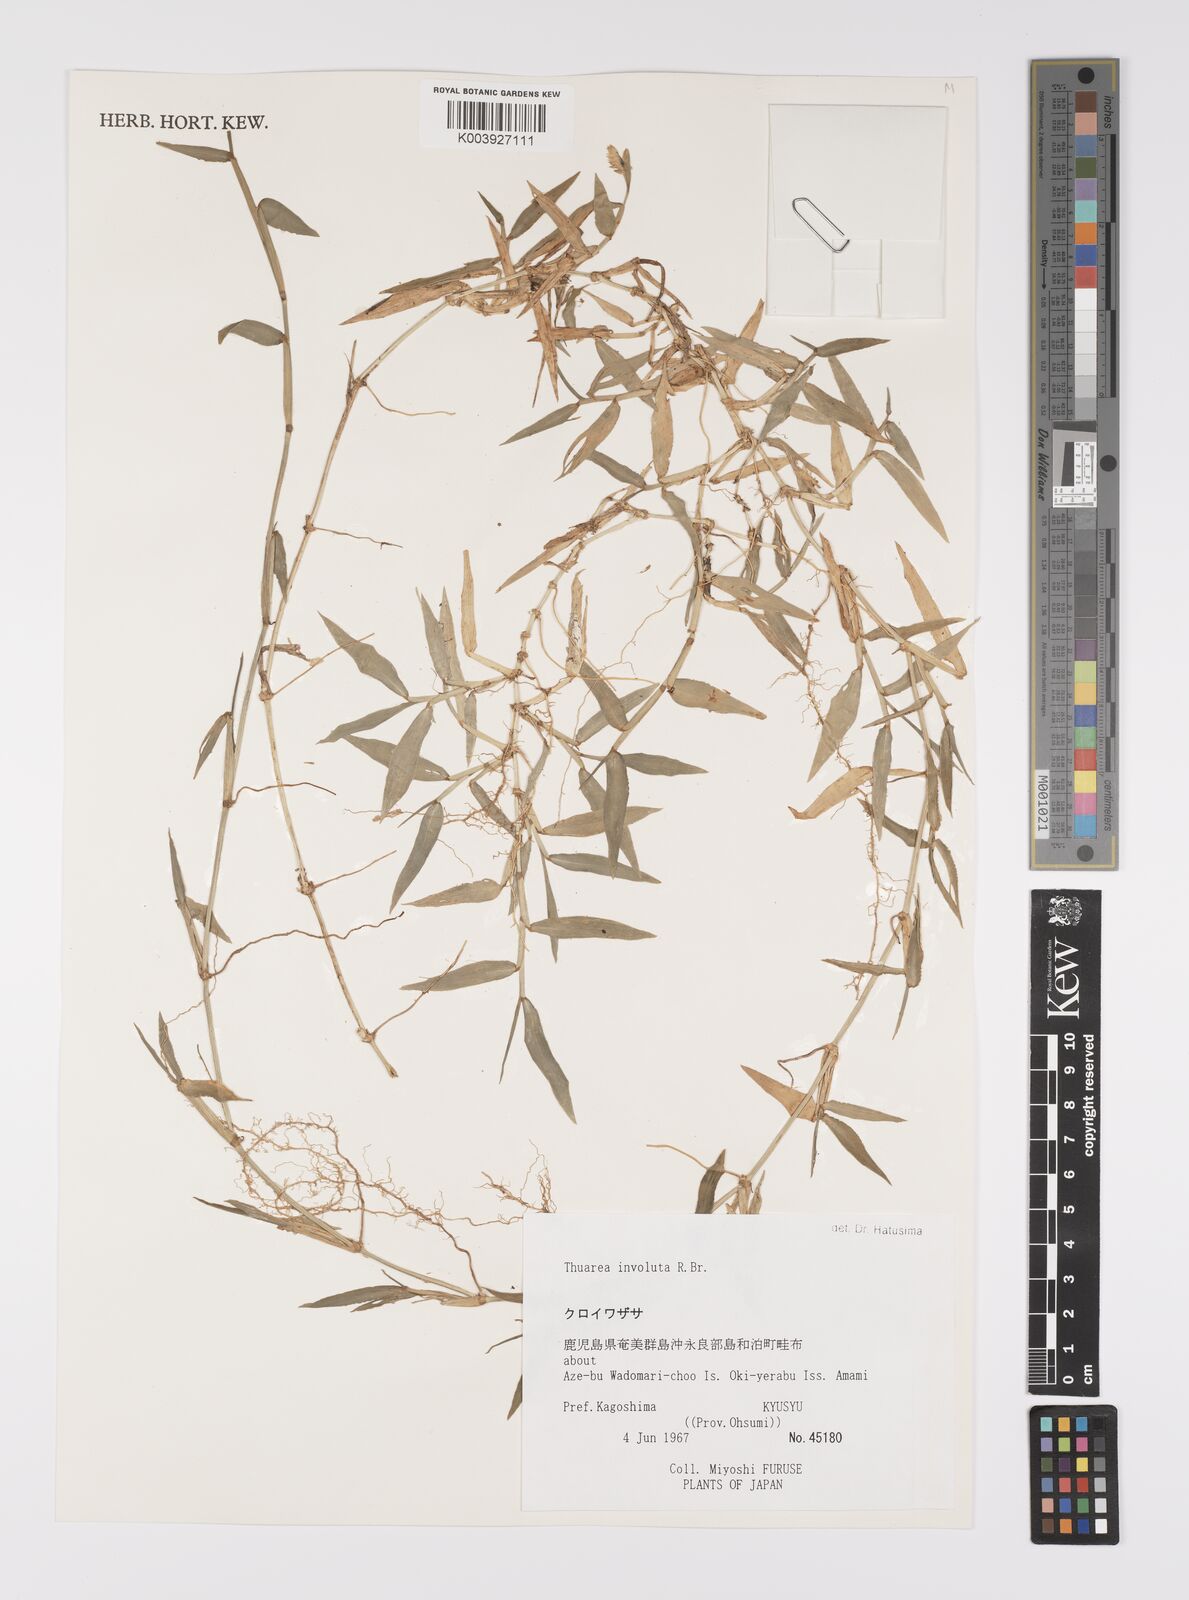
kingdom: Plantae
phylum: Tracheophyta
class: Liliopsida
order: Poales
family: Poaceae
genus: Thuarea
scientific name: Thuarea involuta
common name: Tropical beach grass
